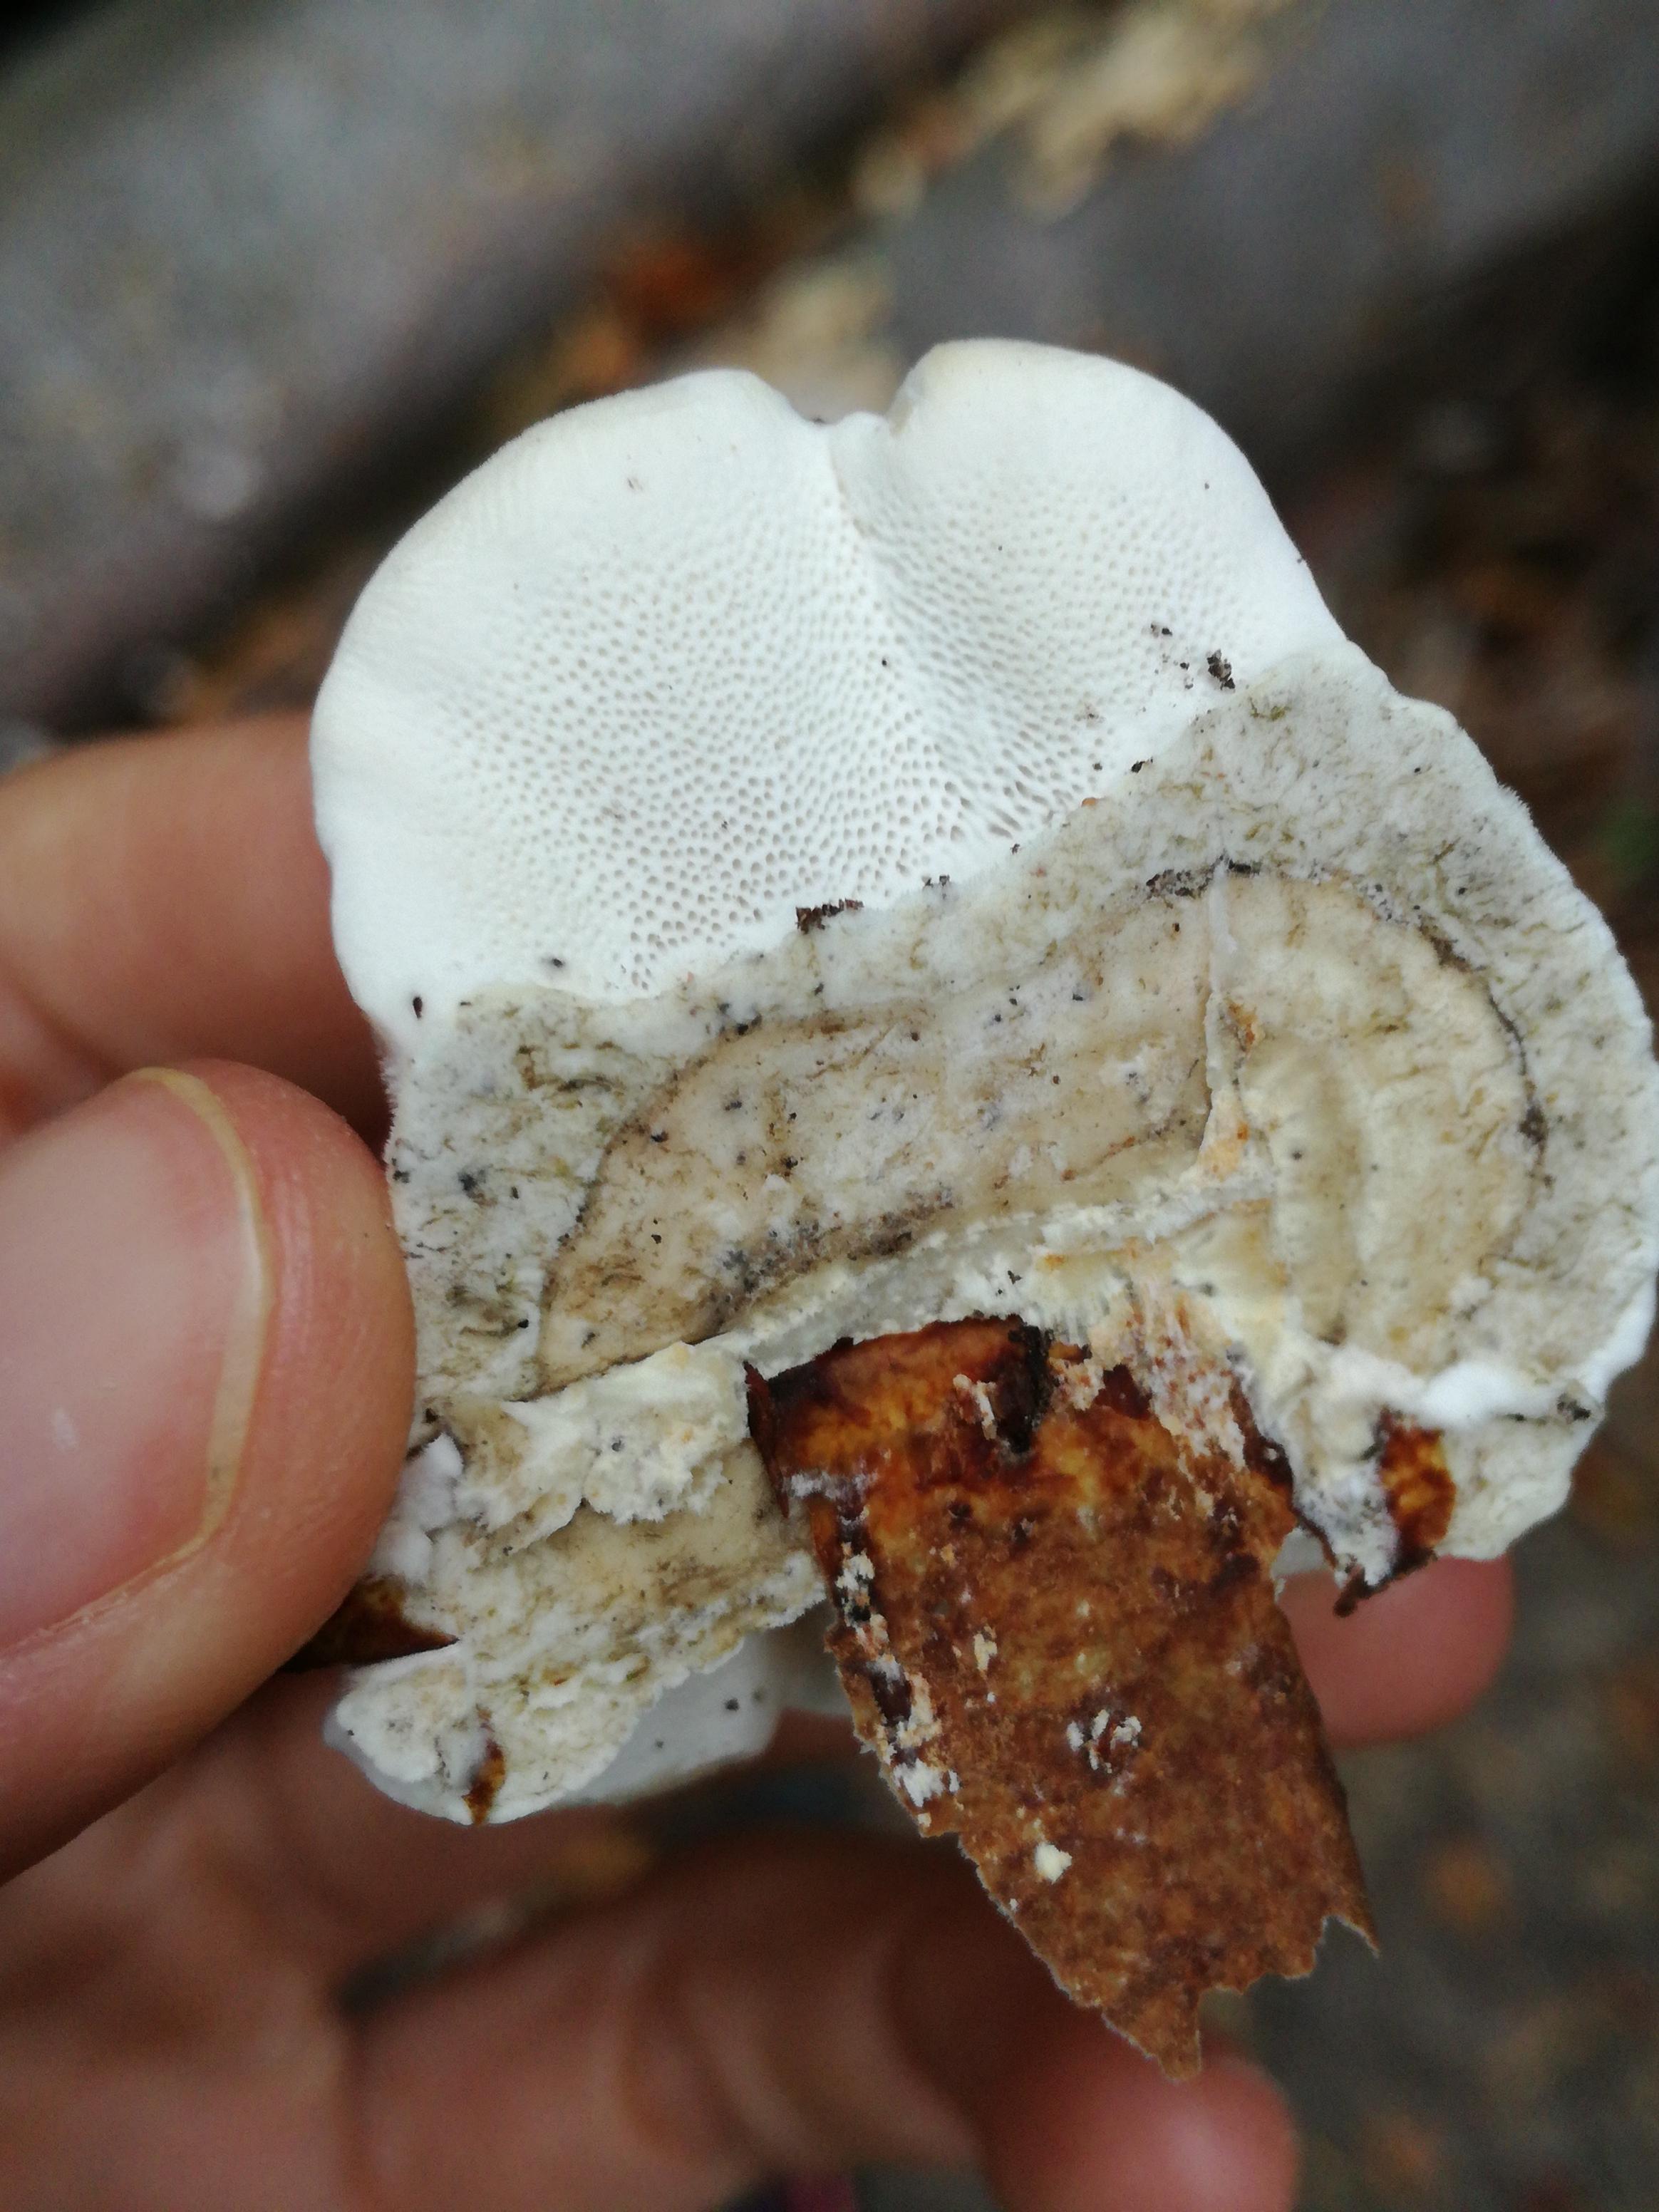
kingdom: Fungi
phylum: Basidiomycota
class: Agaricomycetes
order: Polyporales
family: Polyporaceae
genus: Trametes
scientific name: Trametes hirsuta
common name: håret læderporesvamp
